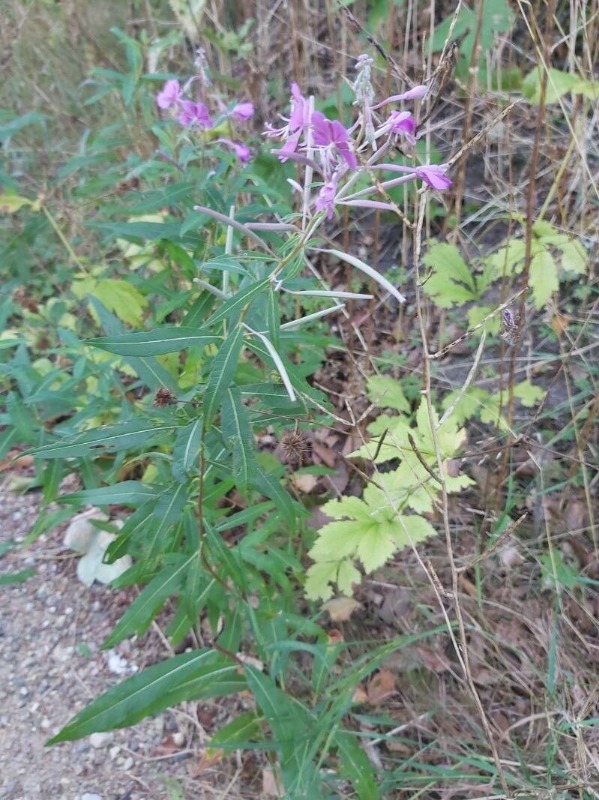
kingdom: Plantae
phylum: Tracheophyta
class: Magnoliopsida
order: Myrtales
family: Onagraceae
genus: Chamaenerion
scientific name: Chamaenerion angustifolium
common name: Gederams
